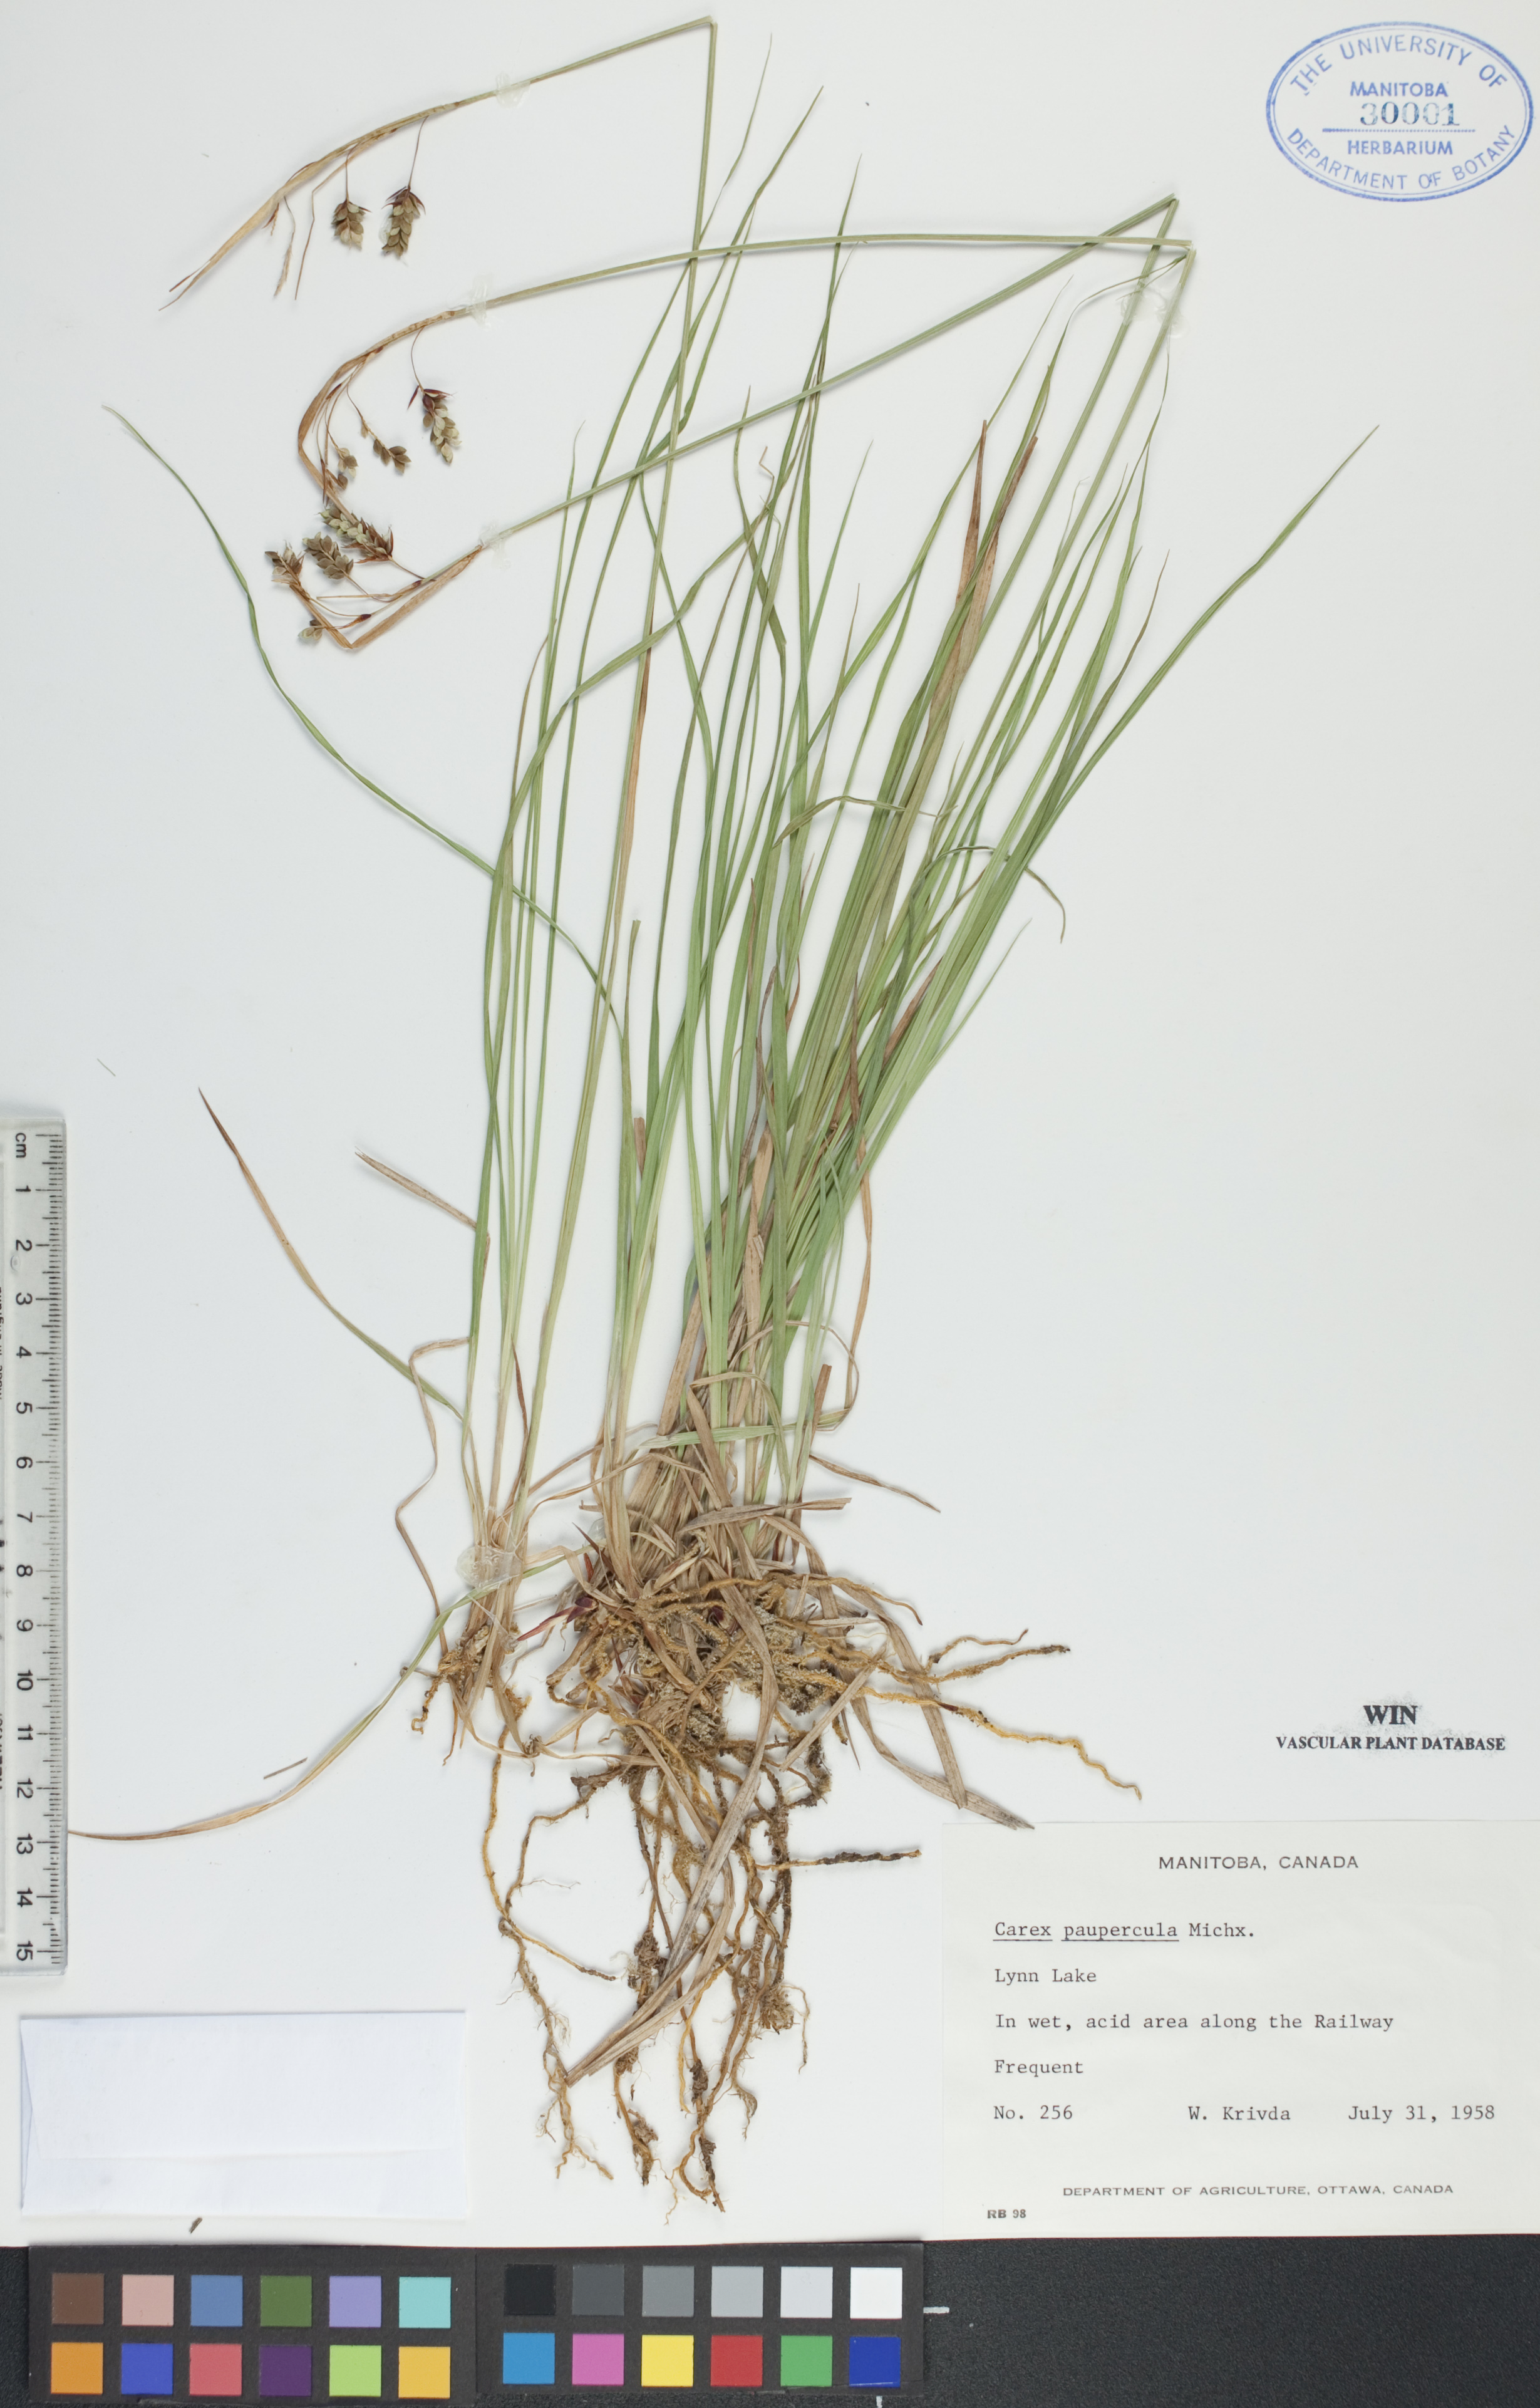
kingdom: Plantae
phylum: Tracheophyta
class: Liliopsida
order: Poales
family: Cyperaceae
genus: Carex
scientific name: Carex magellanica
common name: Bog sedge
